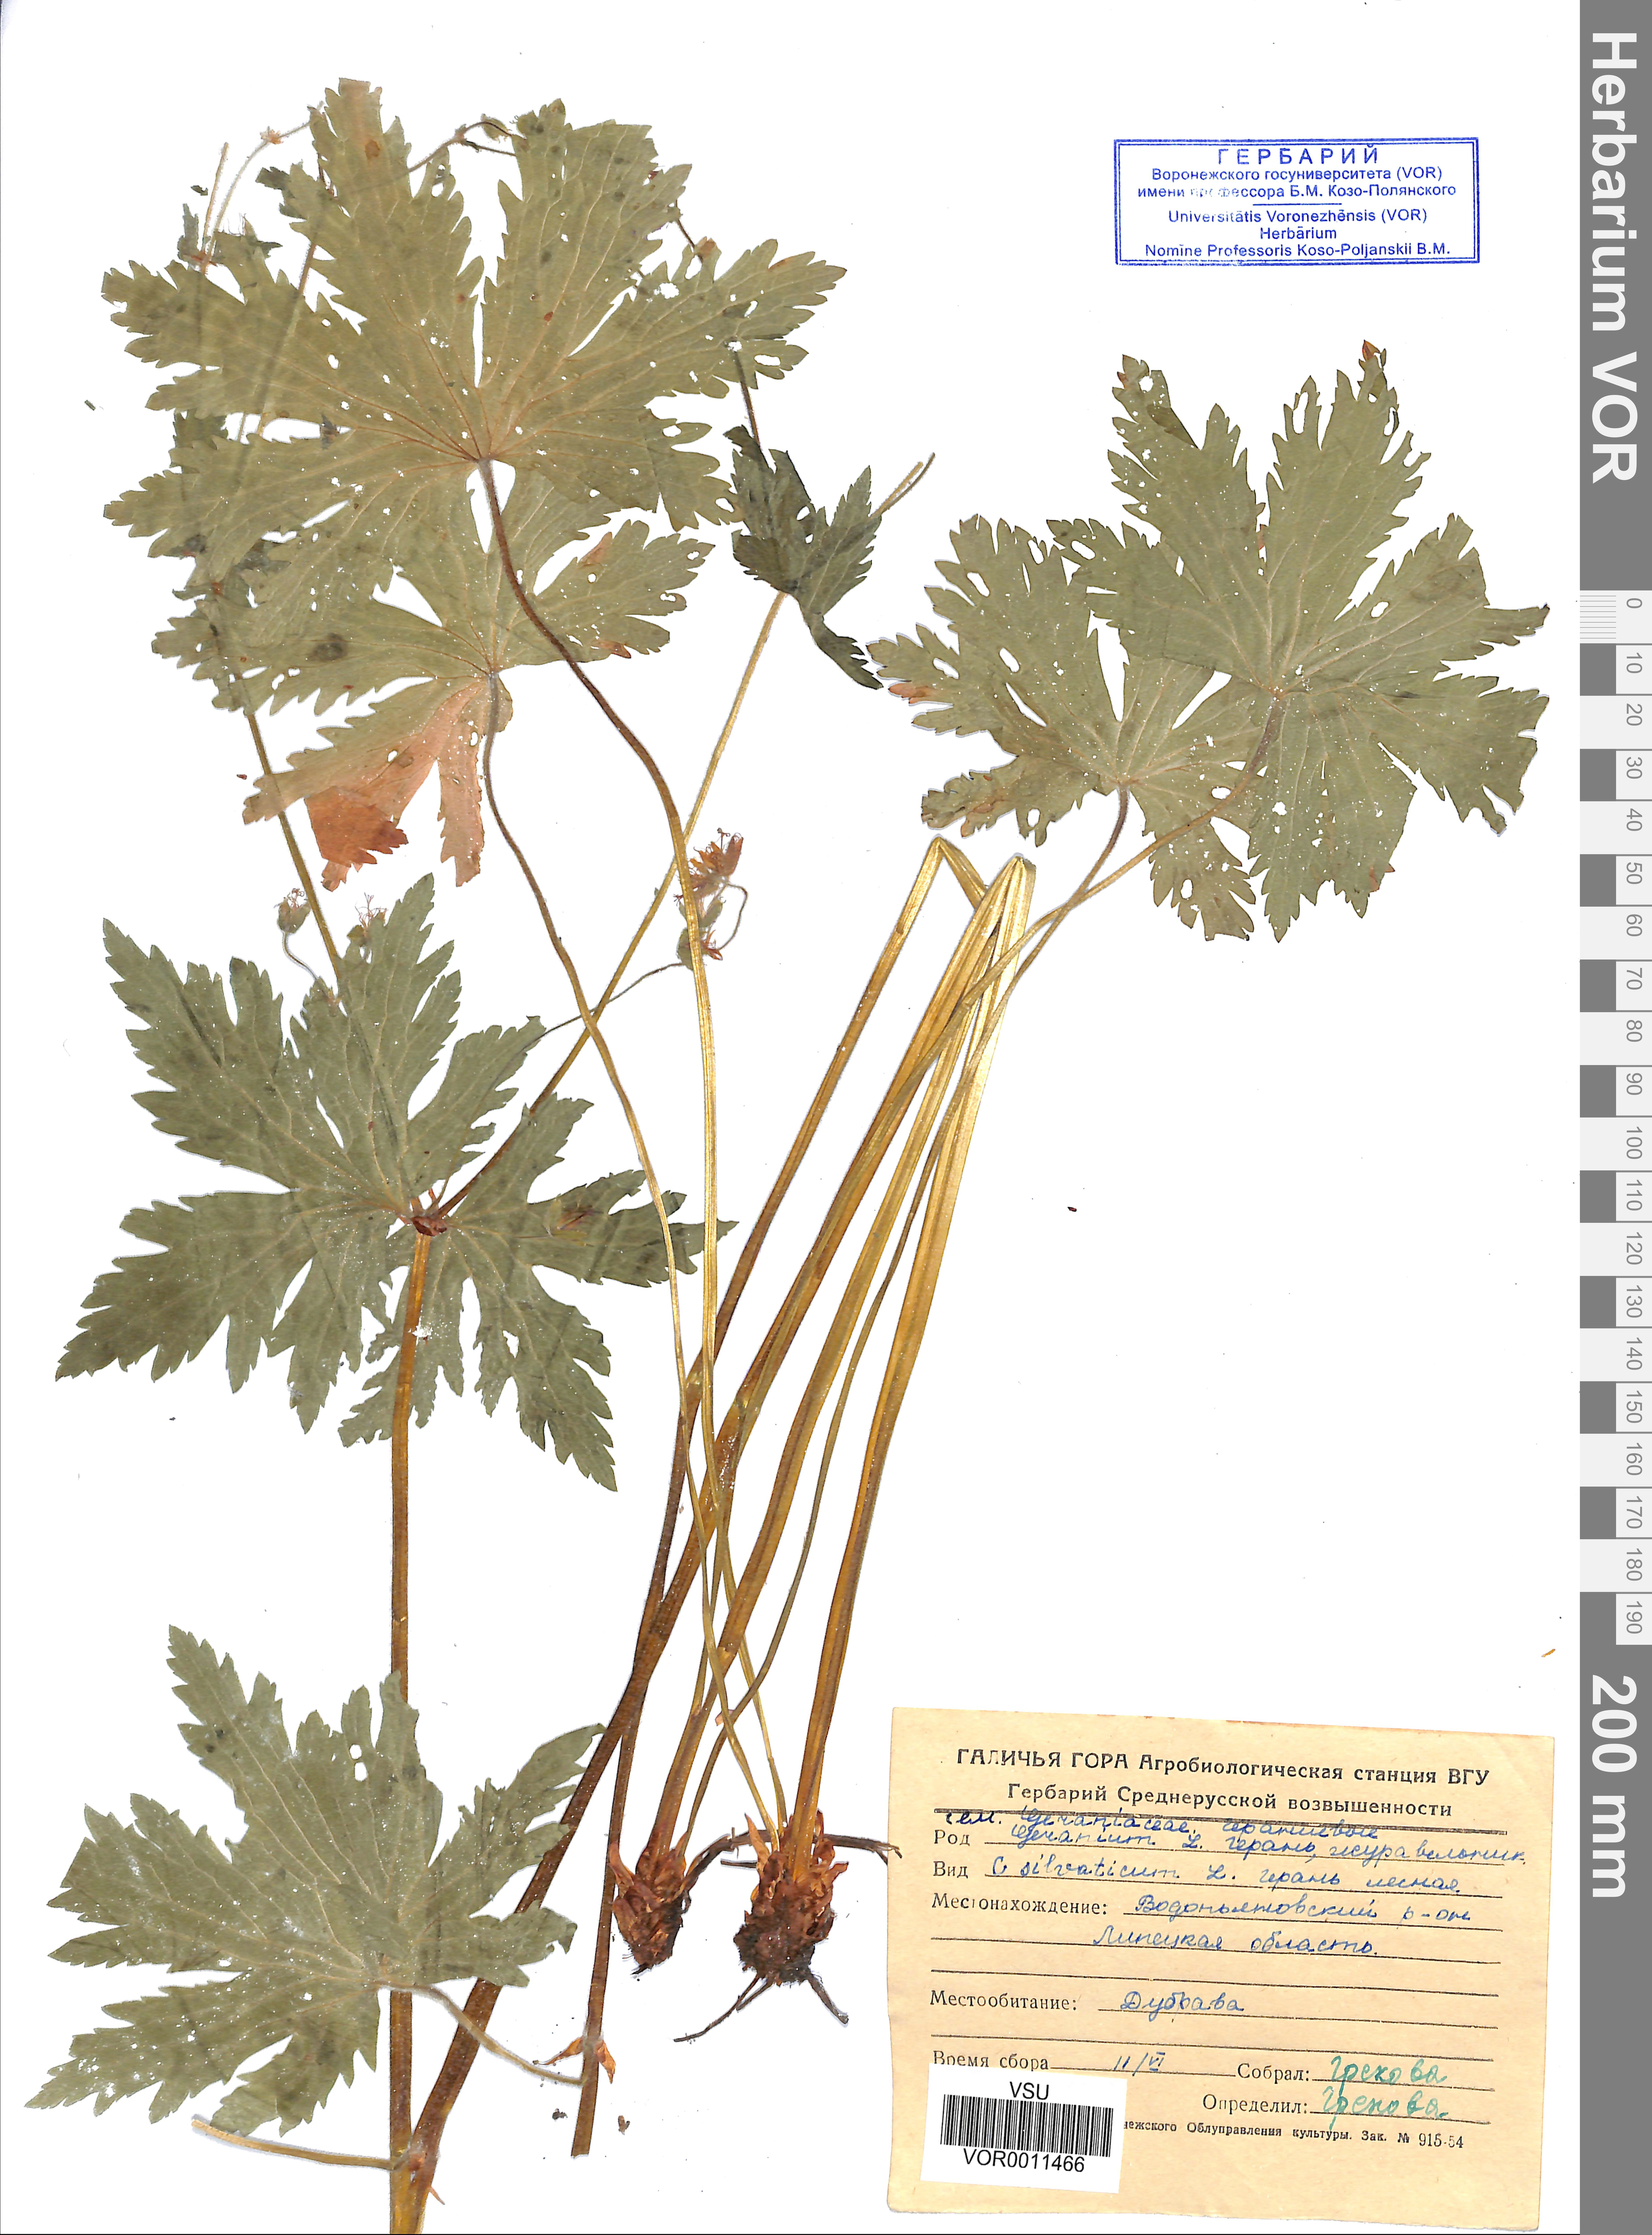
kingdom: Plantae
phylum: Tracheophyta
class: Magnoliopsida
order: Geraniales
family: Geraniaceae
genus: Geranium
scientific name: Geranium sibiricum
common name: Siberian crane's-bill
